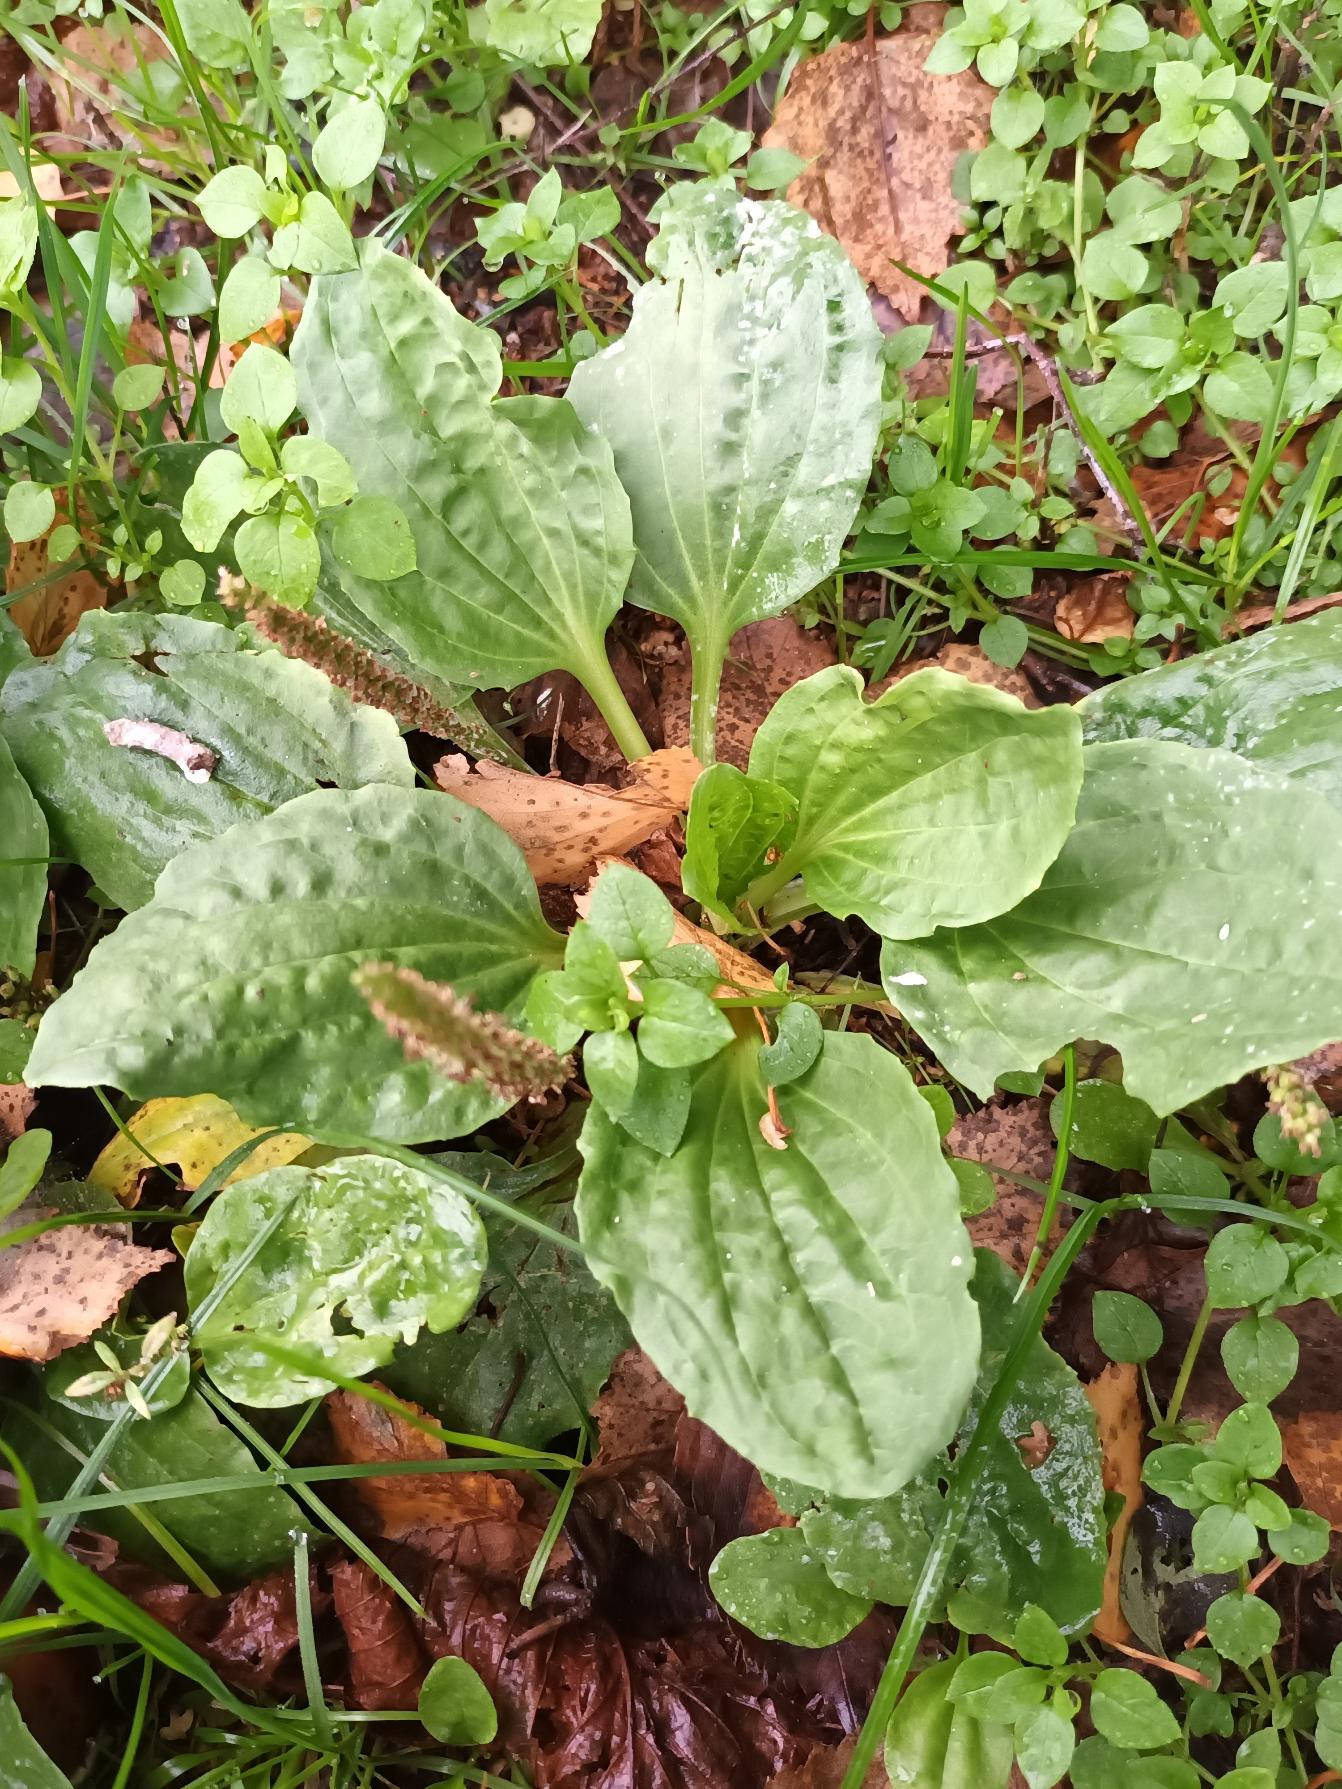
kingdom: Plantae
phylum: Tracheophyta
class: Magnoliopsida
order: Lamiales
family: Plantaginaceae
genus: Plantago
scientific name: Plantago major
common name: Glat vejbred
